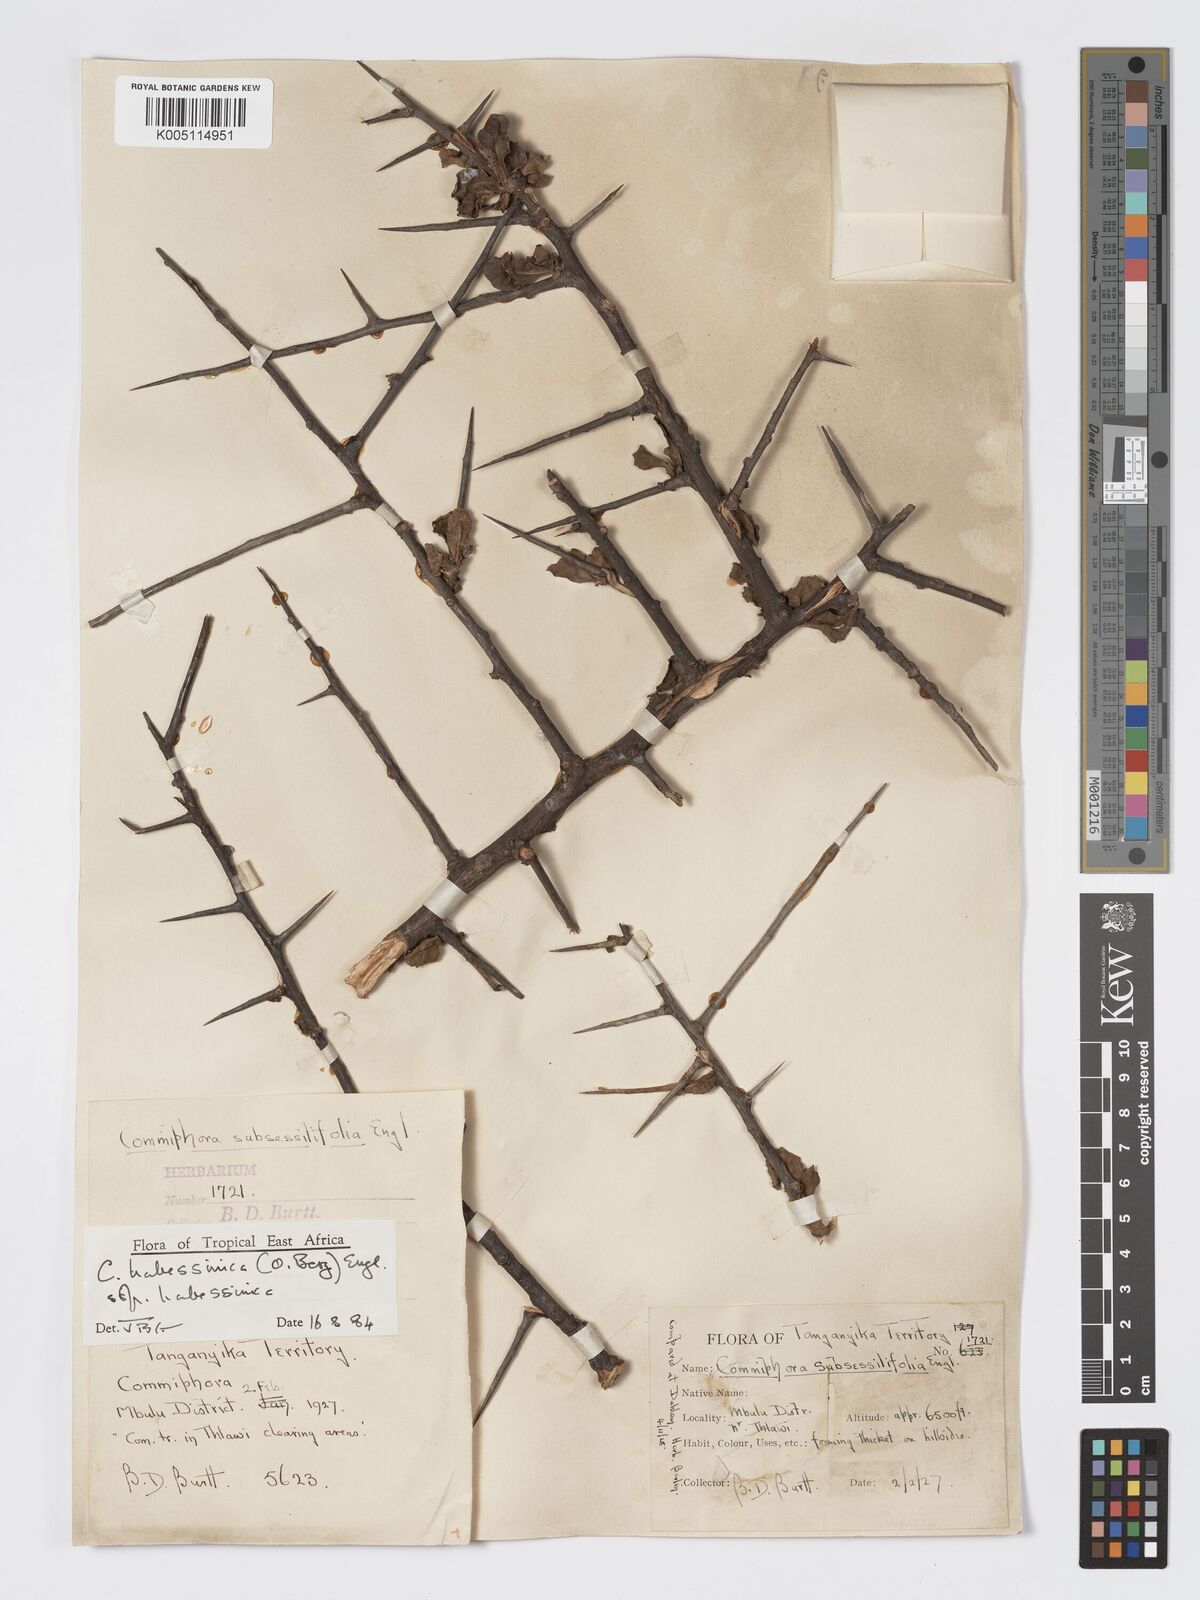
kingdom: Plantae
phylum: Tracheophyta
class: Magnoliopsida
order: Sapindales
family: Burseraceae
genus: Commiphora
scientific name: Commiphora madagascariensis
